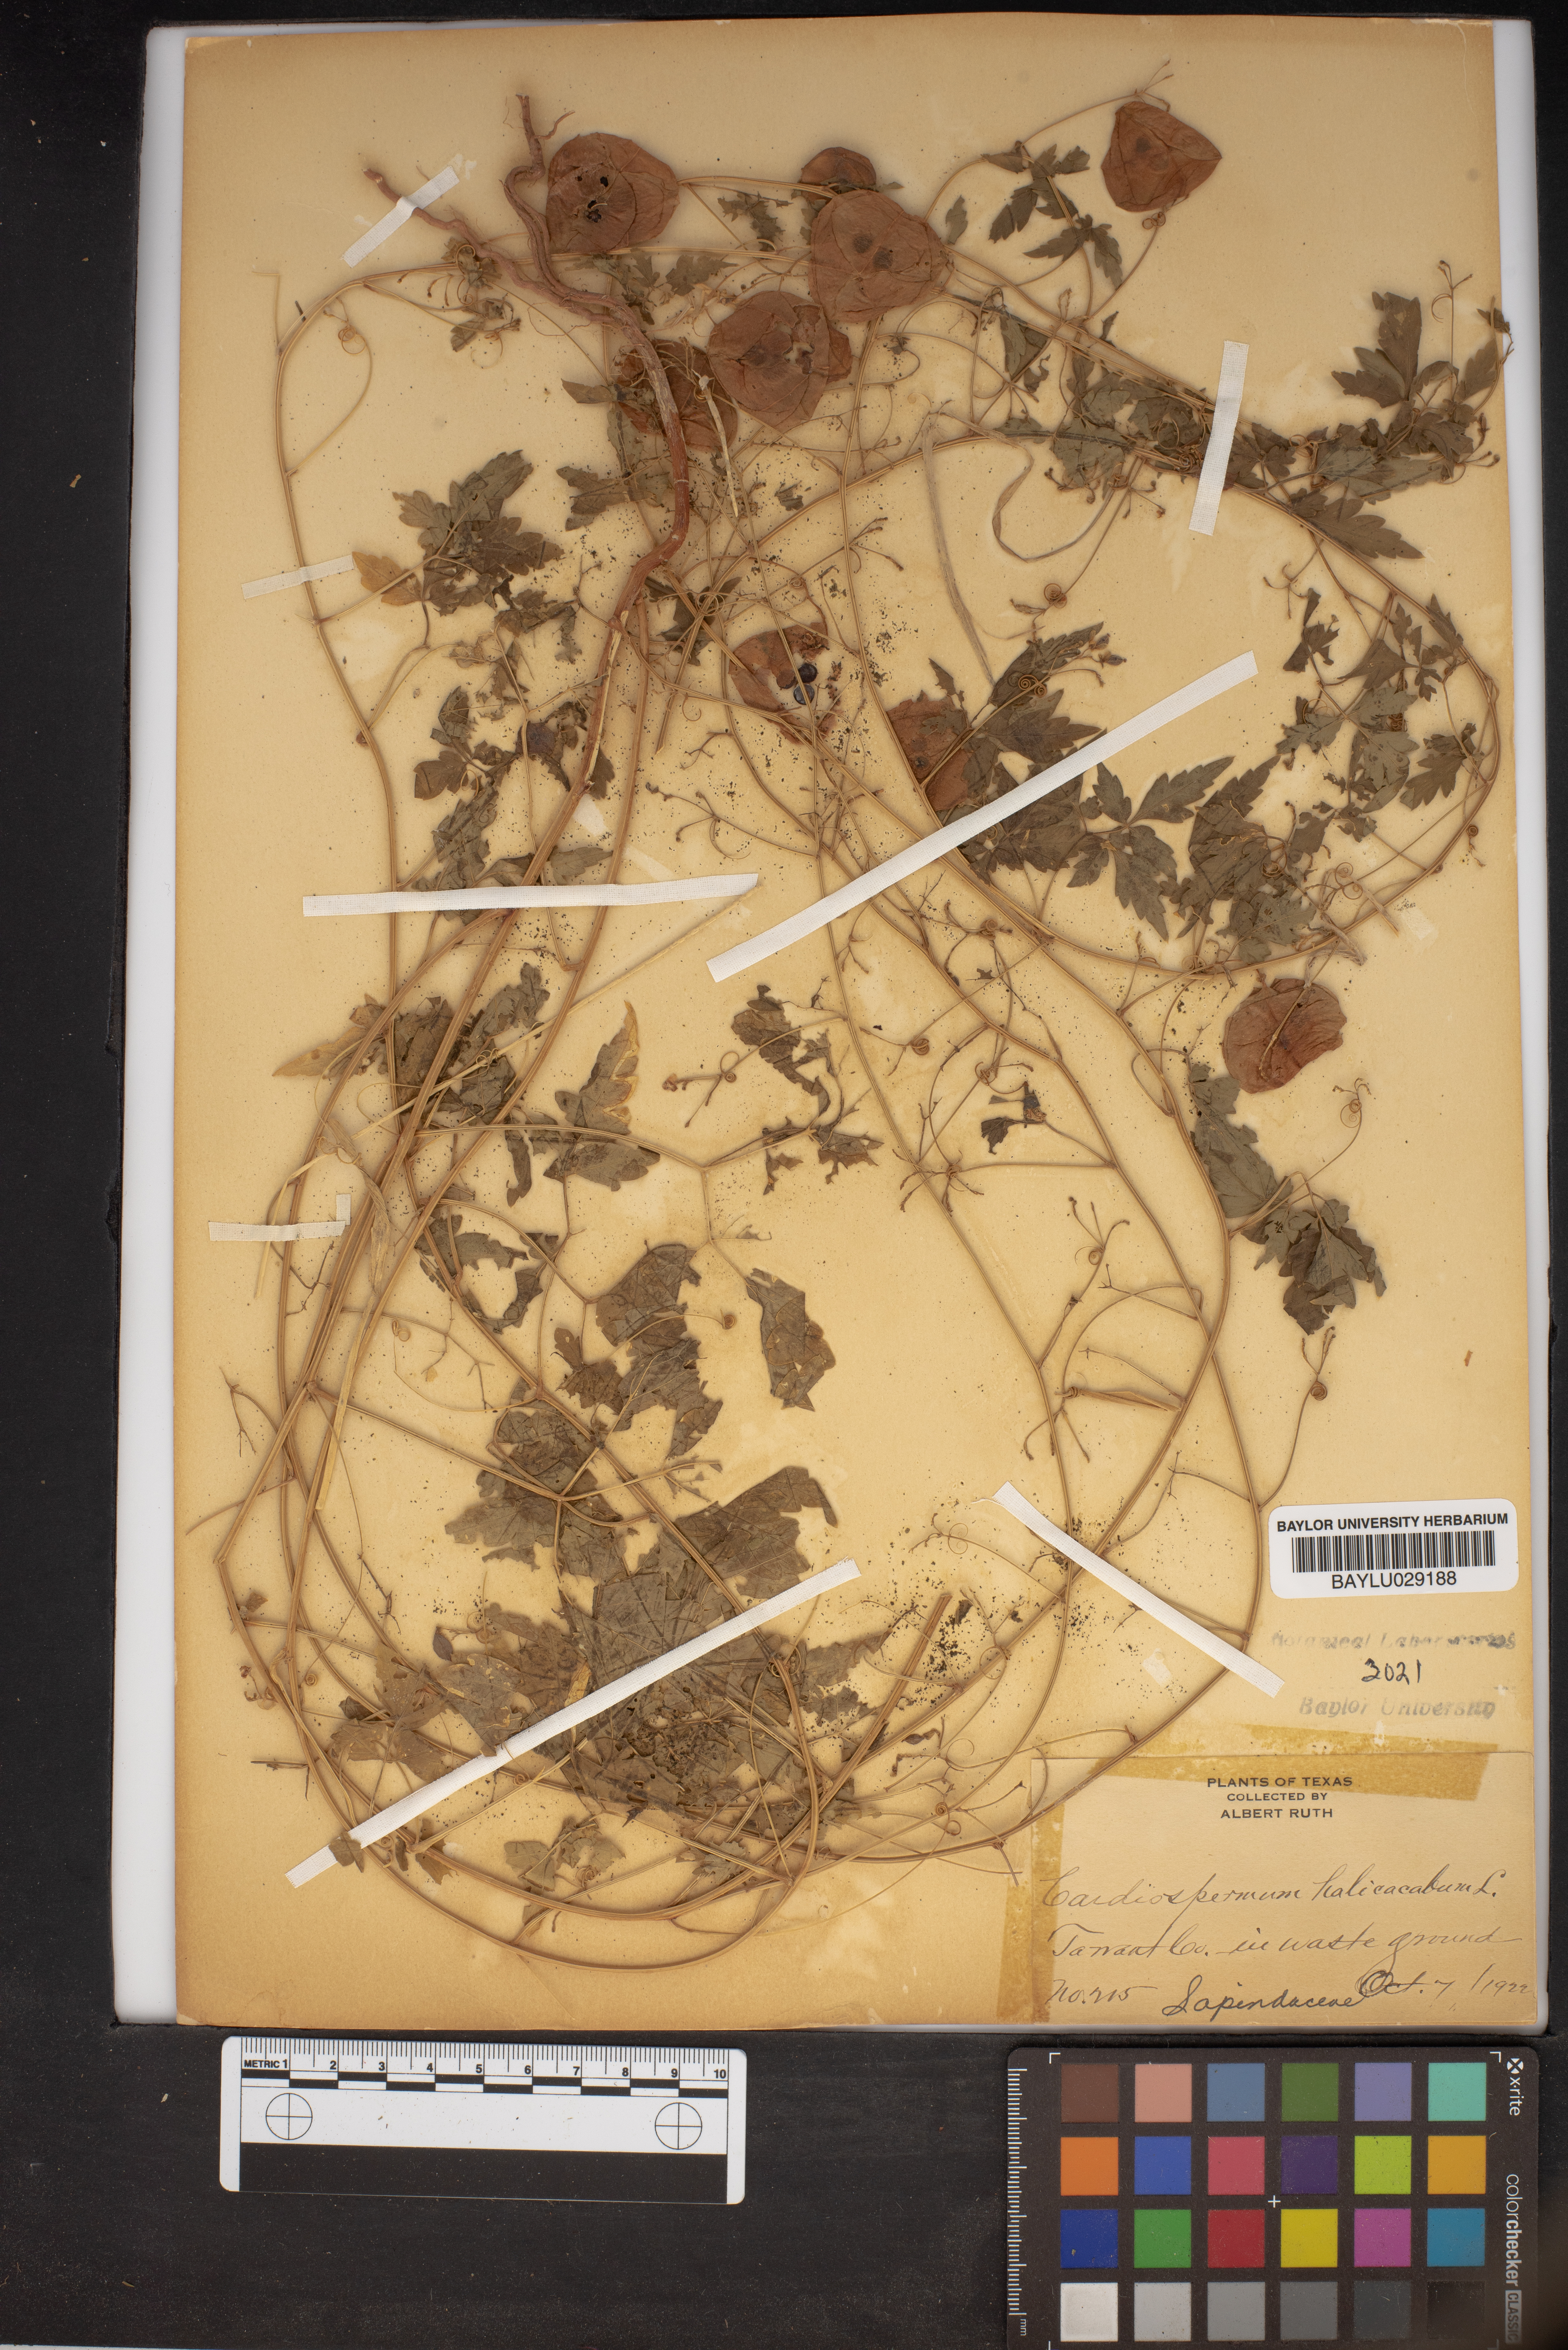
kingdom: Plantae
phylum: Tracheophyta
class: Magnoliopsida
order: Sapindales
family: Sapindaceae
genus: Cardiospermum
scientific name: Cardiospermum halicacabum
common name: Balloon vine
